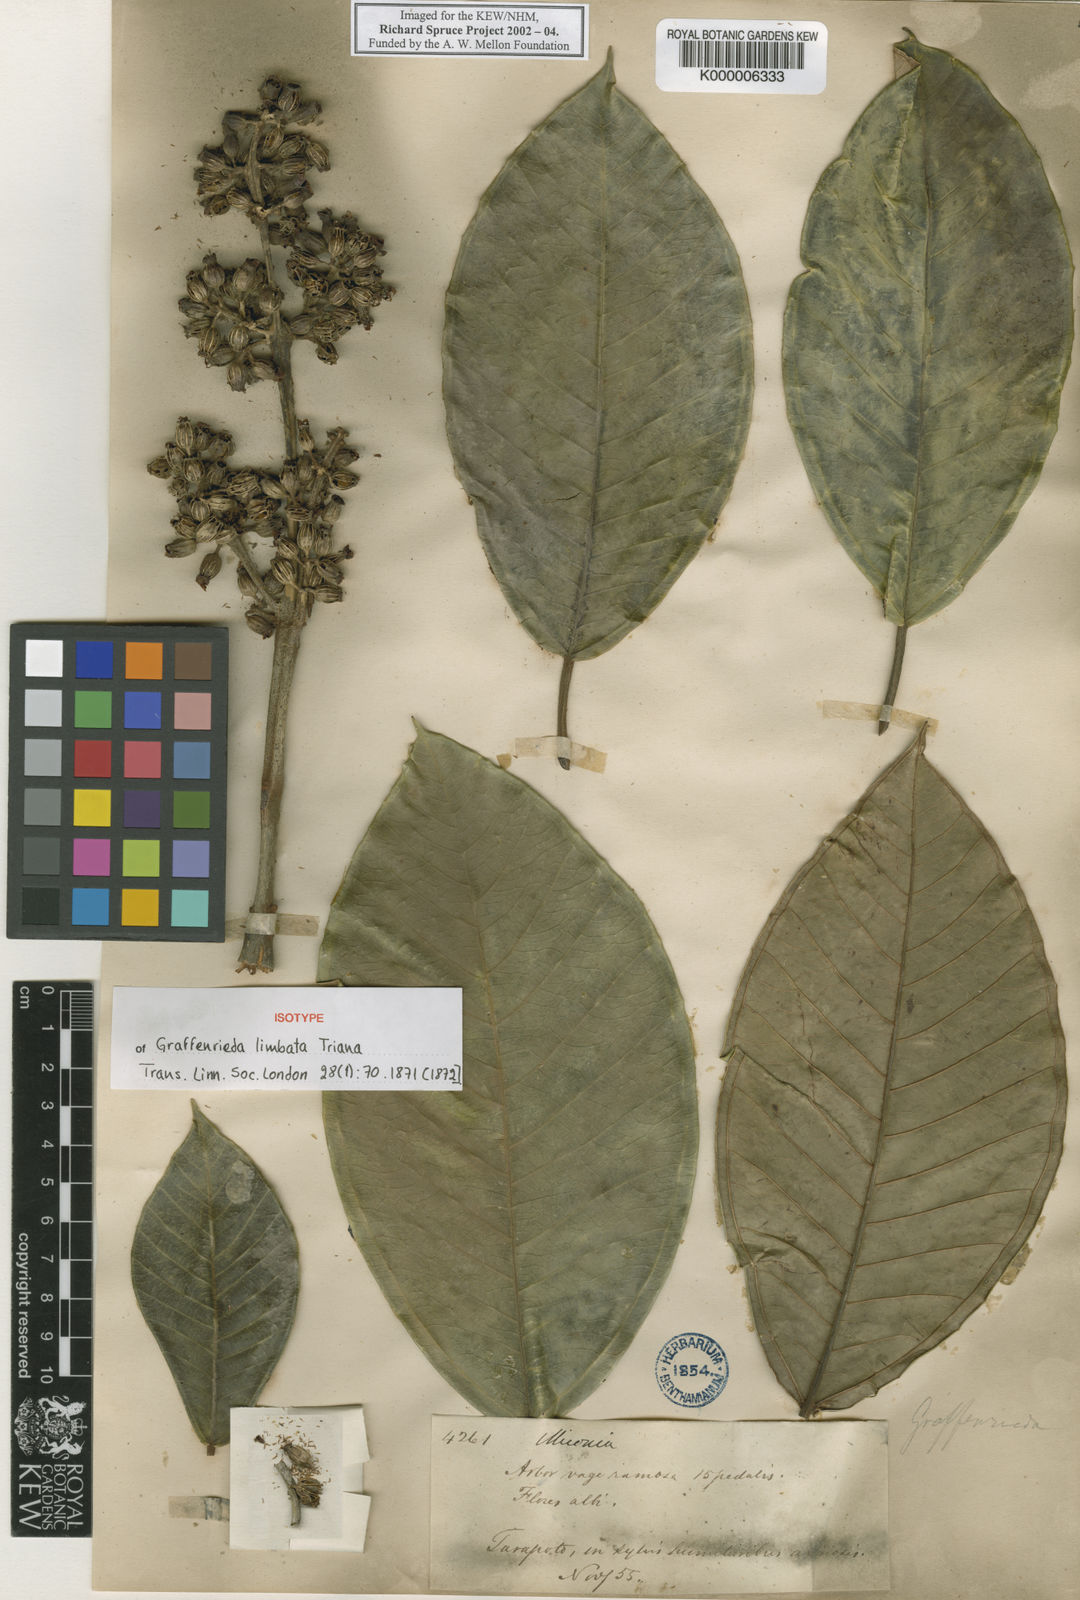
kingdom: Plantae
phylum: Tracheophyta
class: Magnoliopsida
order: Myrtales
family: Melastomataceae
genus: Graffenrieda
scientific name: Graffenrieda limbata
